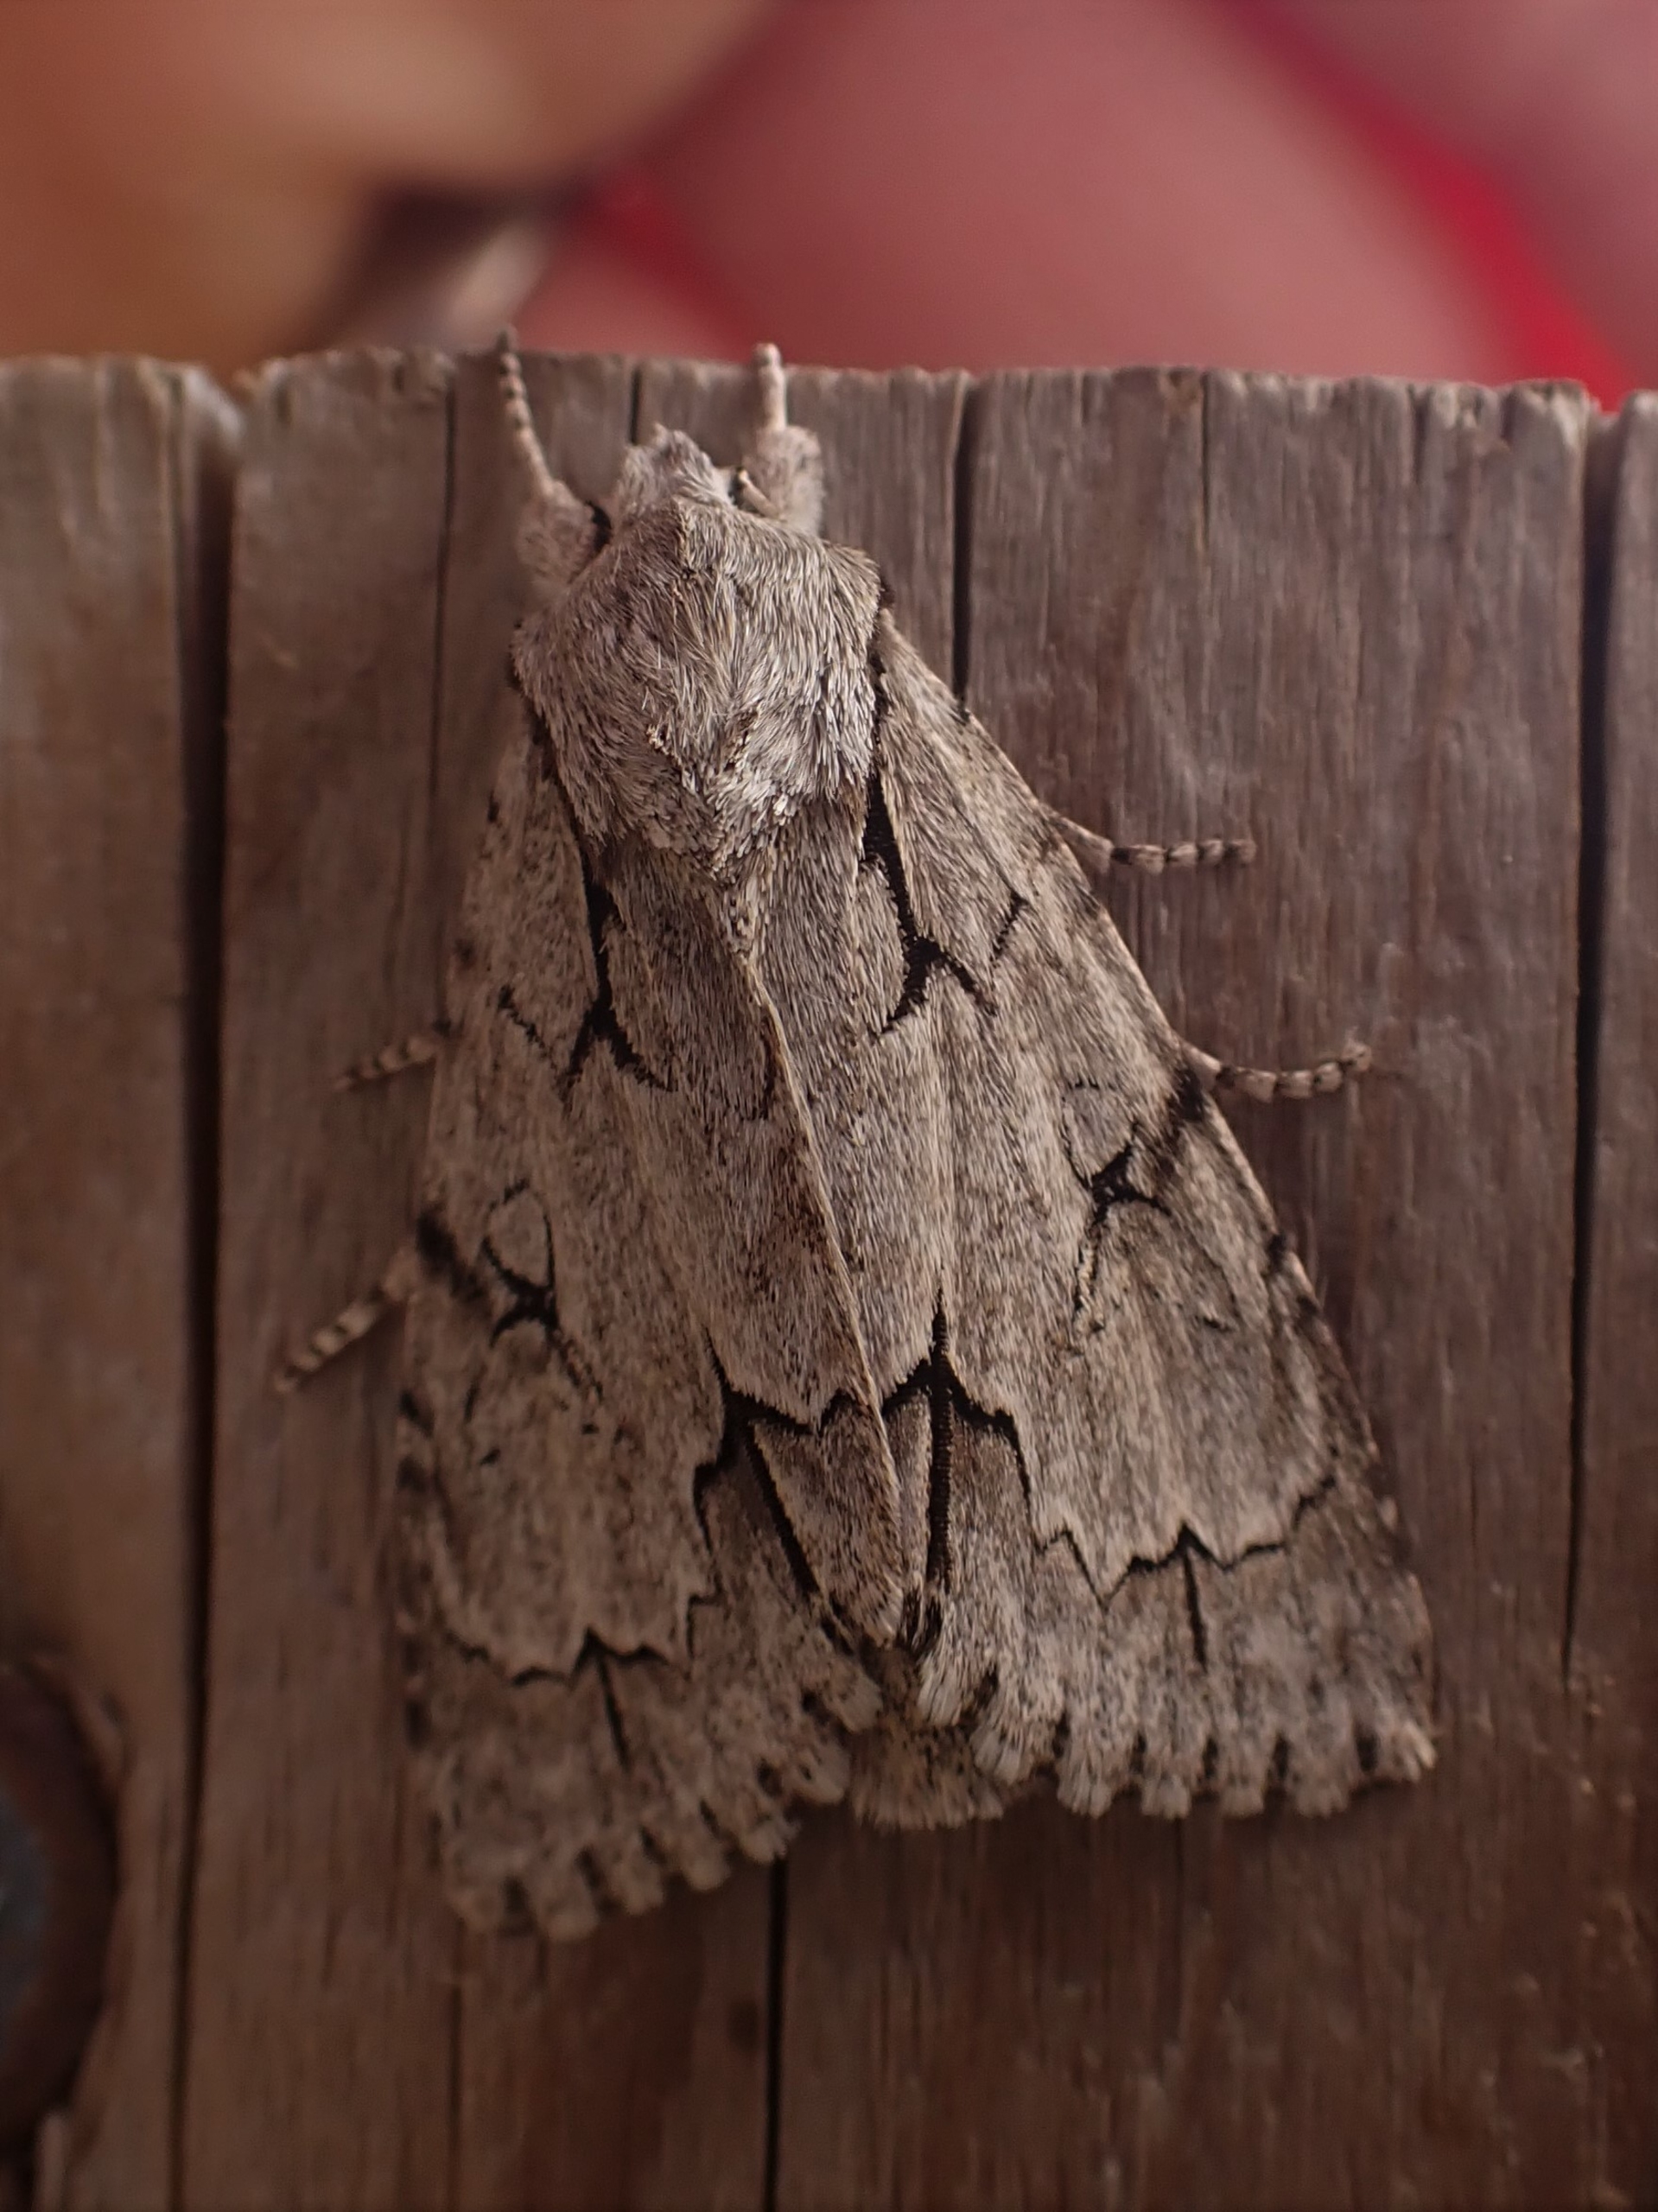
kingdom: Animalia
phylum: Arthropoda
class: Insecta
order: Lepidoptera
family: Noctuidae
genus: Acronicta
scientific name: Acronicta psi
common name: Psi-ugle
